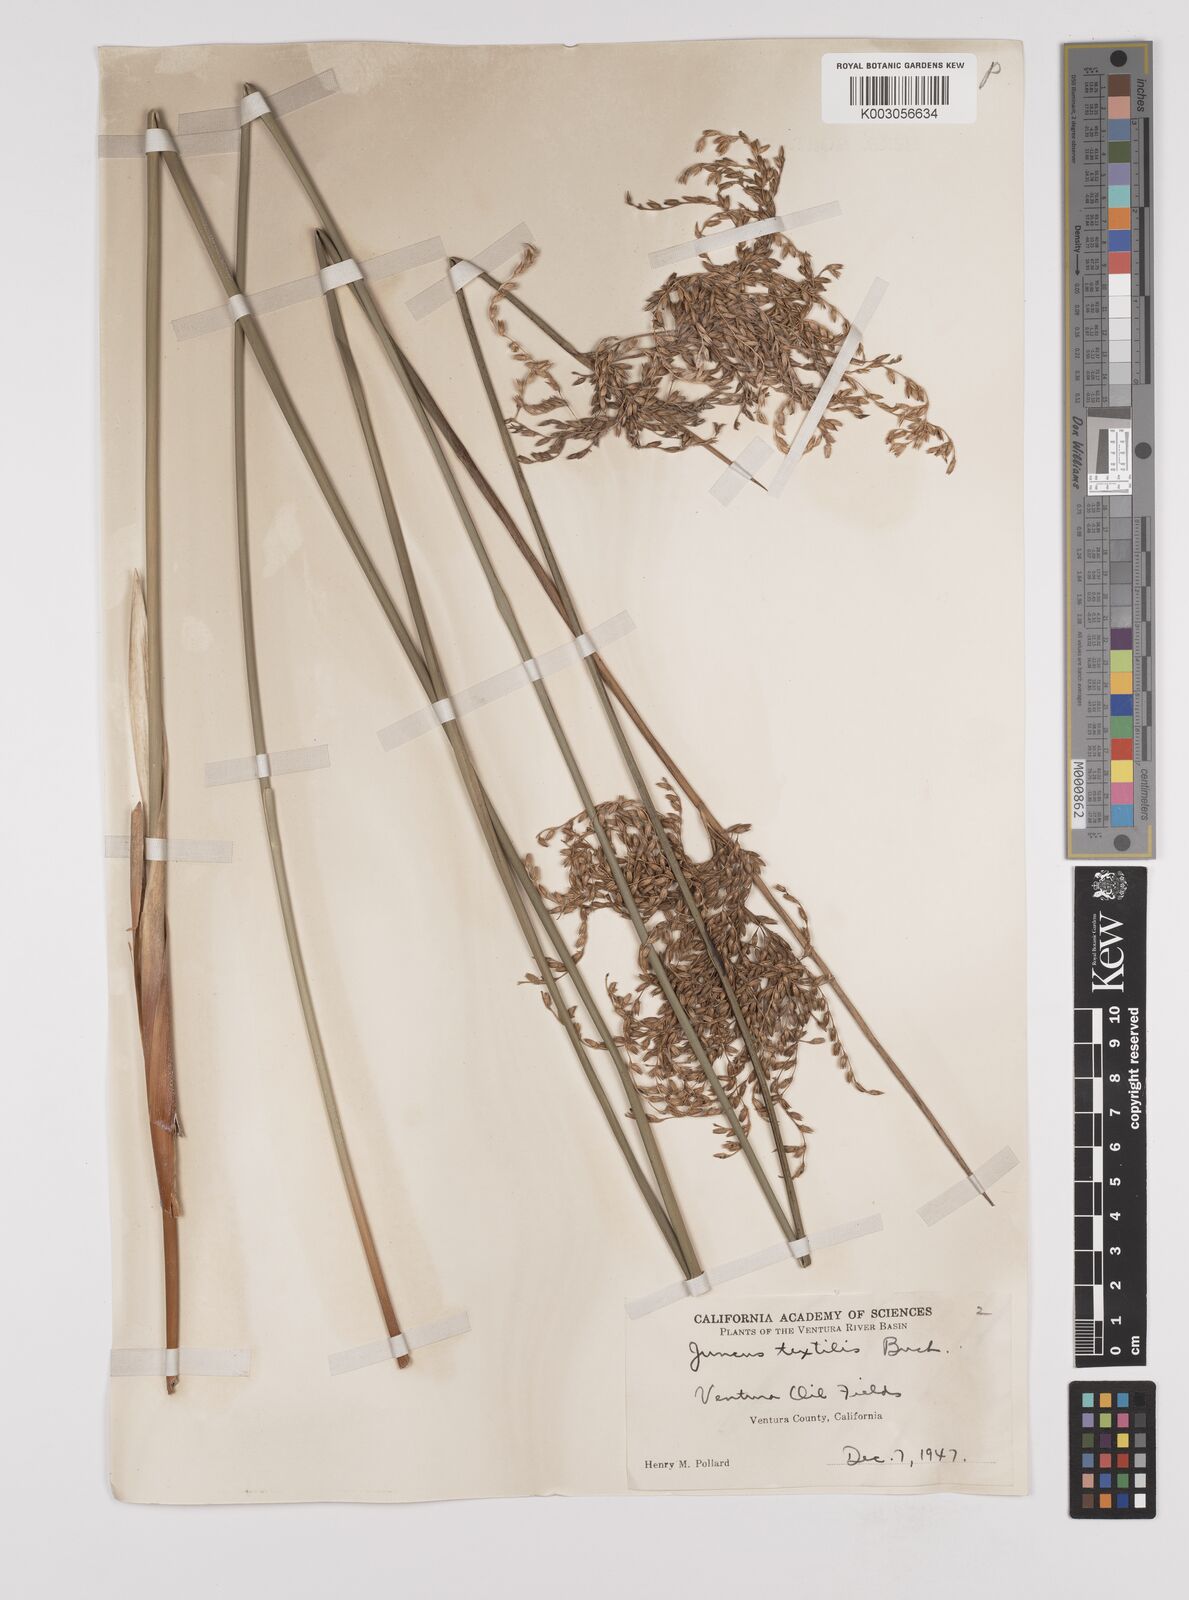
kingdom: Plantae
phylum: Tracheophyta
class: Liliopsida
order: Poales
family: Juncaceae
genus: Juncus
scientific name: Juncus textilis
